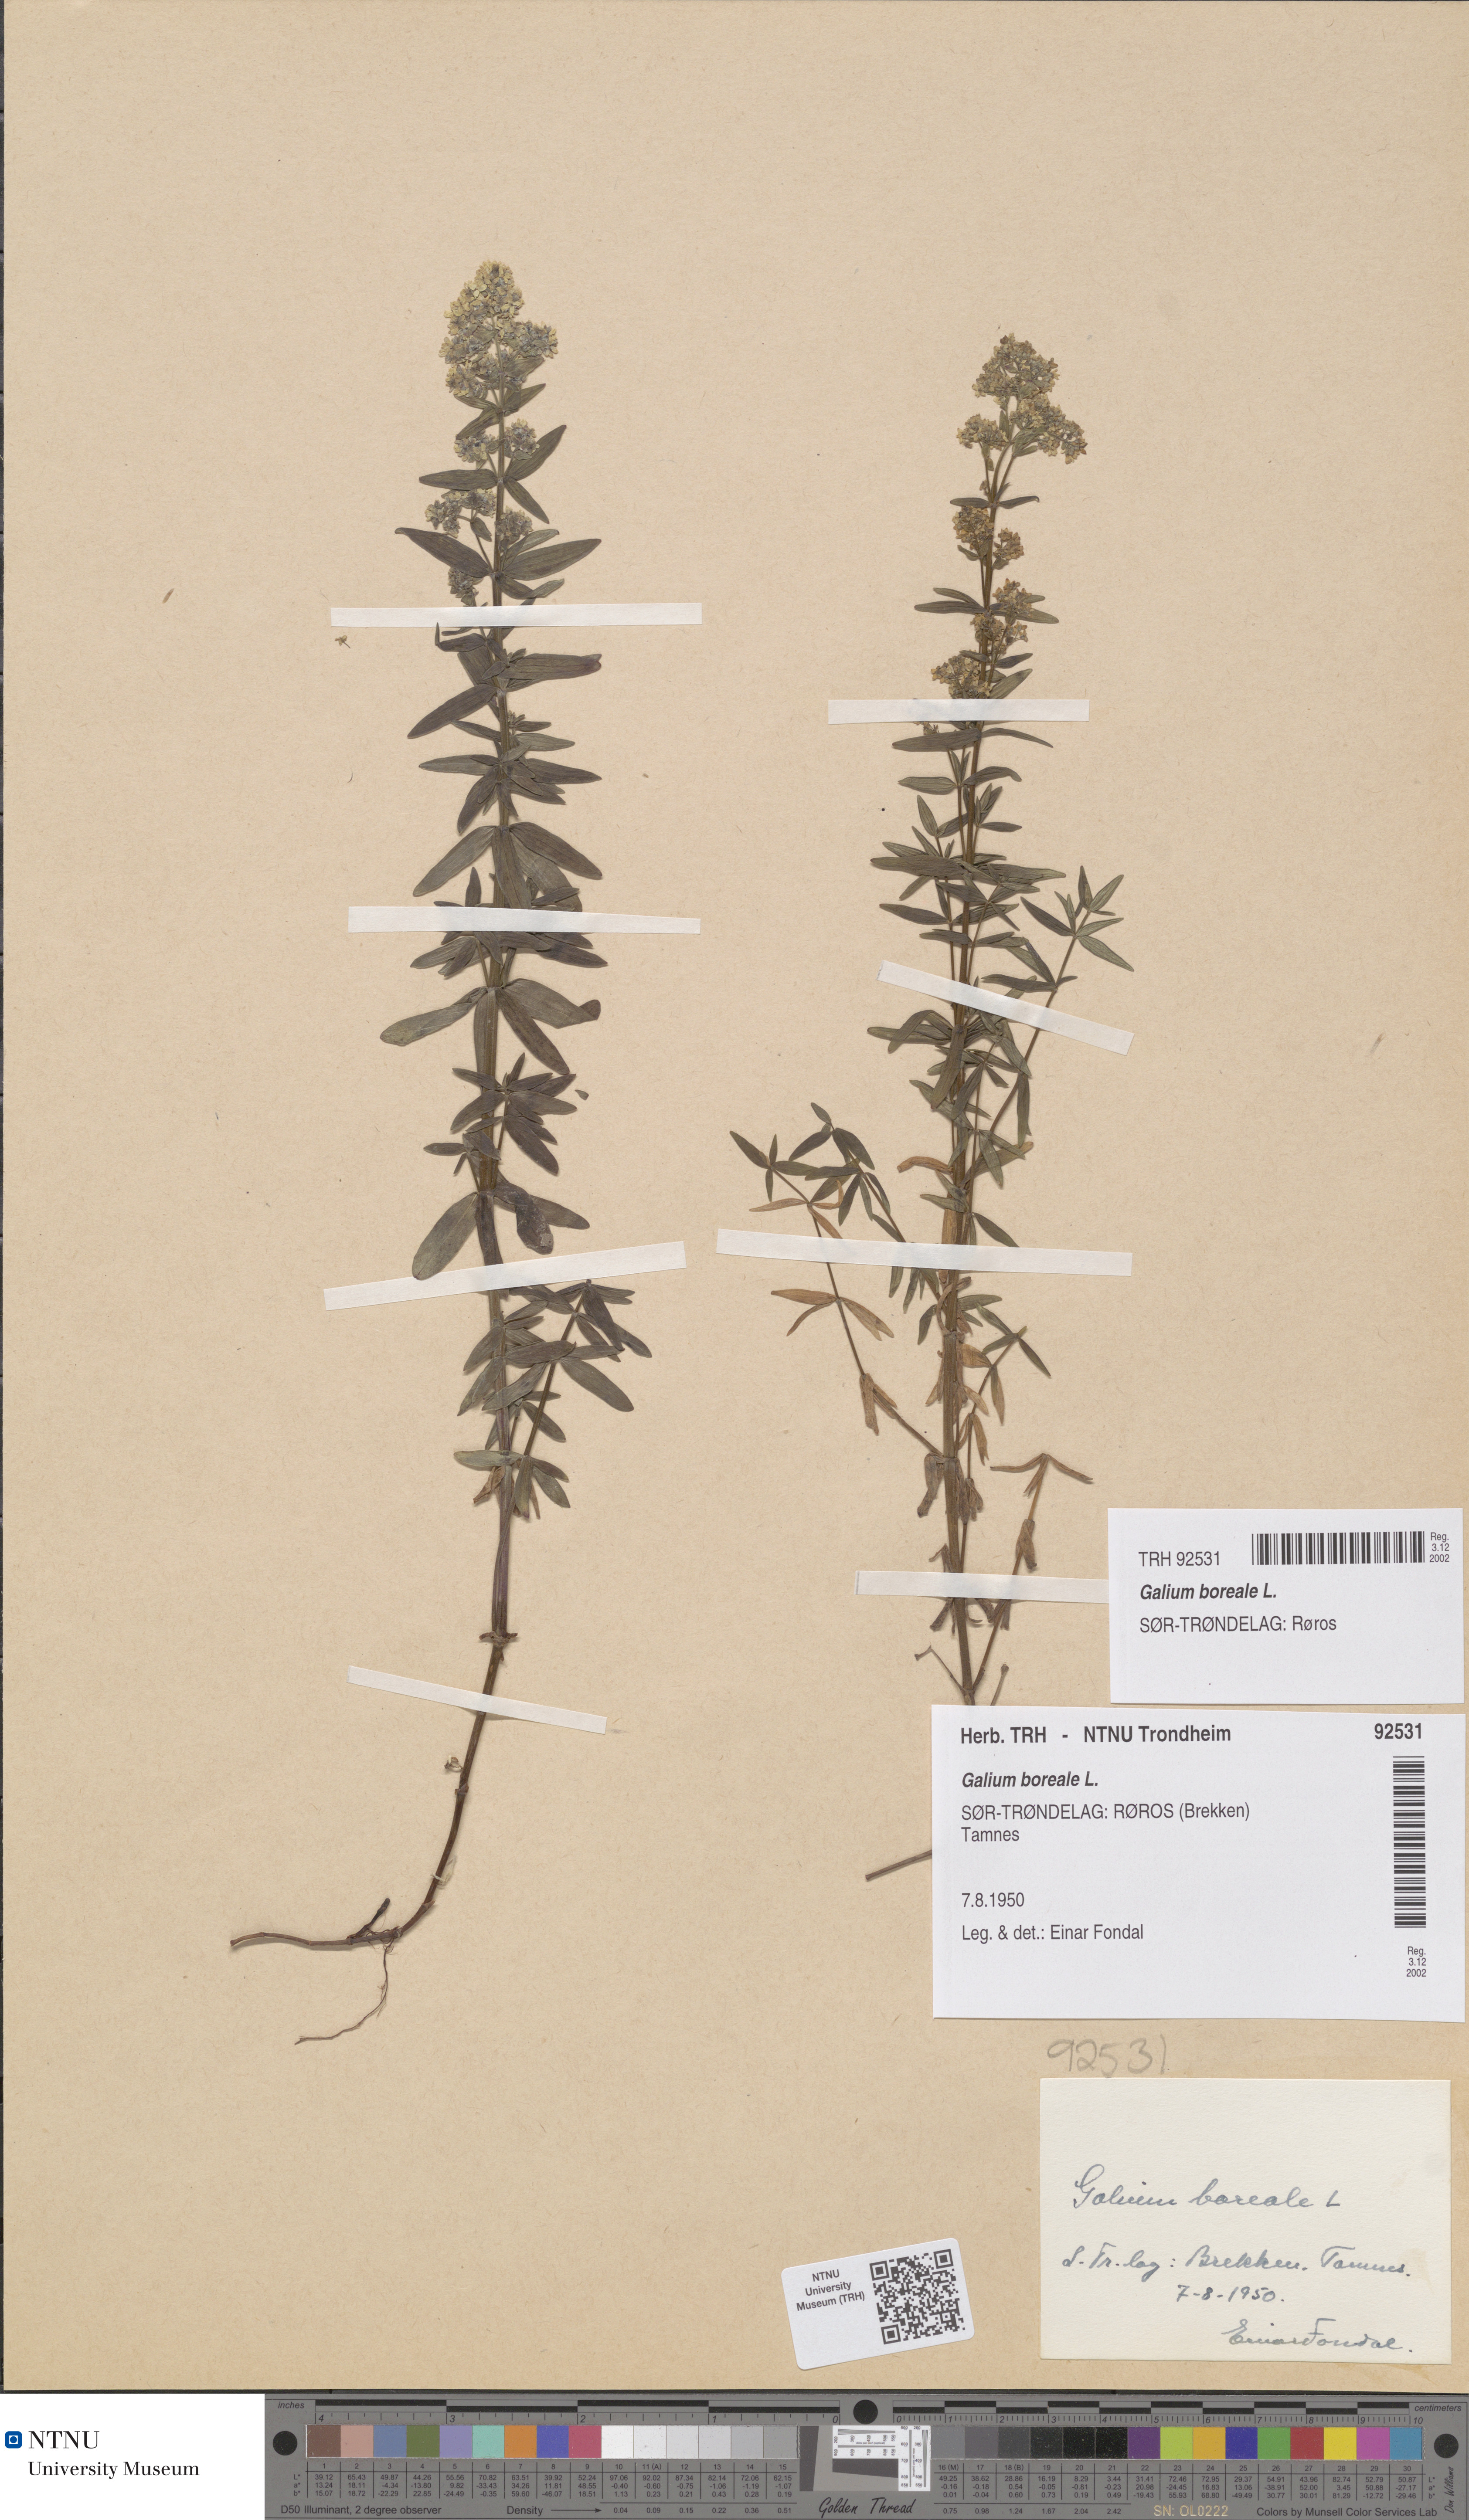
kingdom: Plantae
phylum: Tracheophyta
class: Magnoliopsida
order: Gentianales
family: Rubiaceae
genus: Galium
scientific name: Galium boreale
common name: Northern bedstraw
